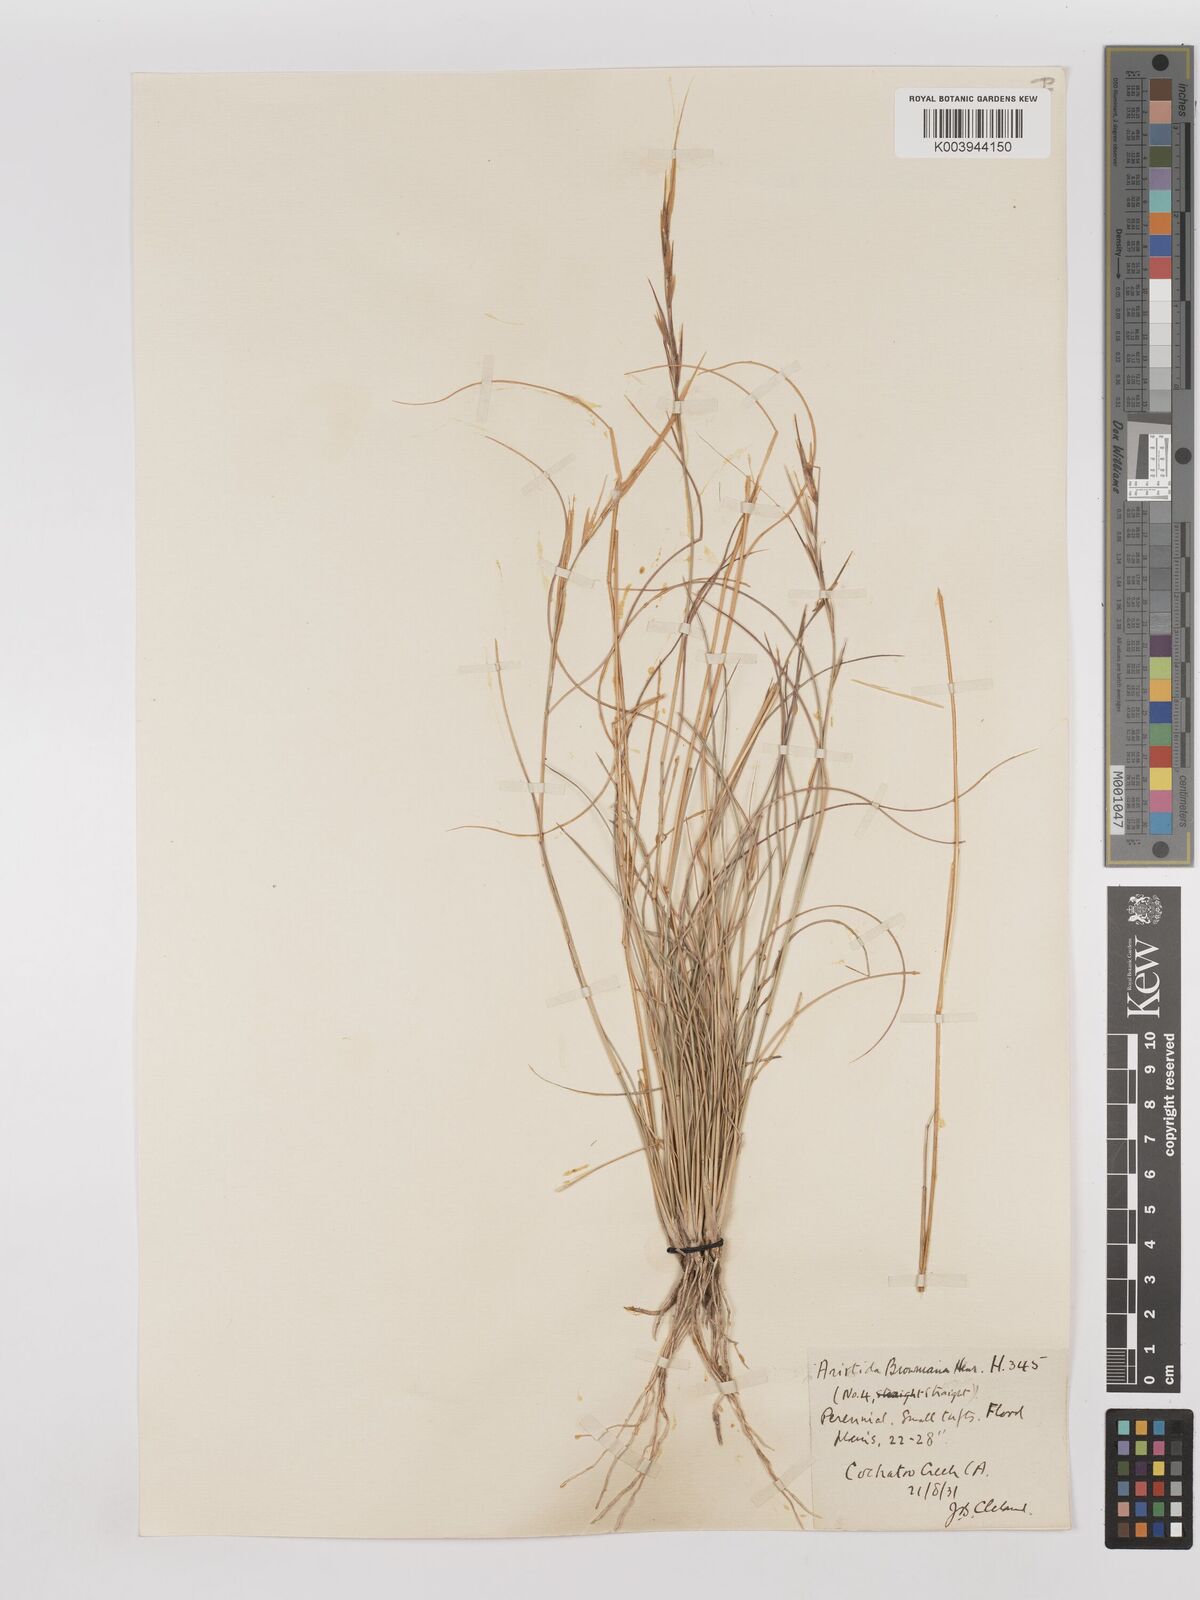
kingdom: Plantae
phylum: Tracheophyta
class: Liliopsida
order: Poales
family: Poaceae
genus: Aristida
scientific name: Aristida holathera
